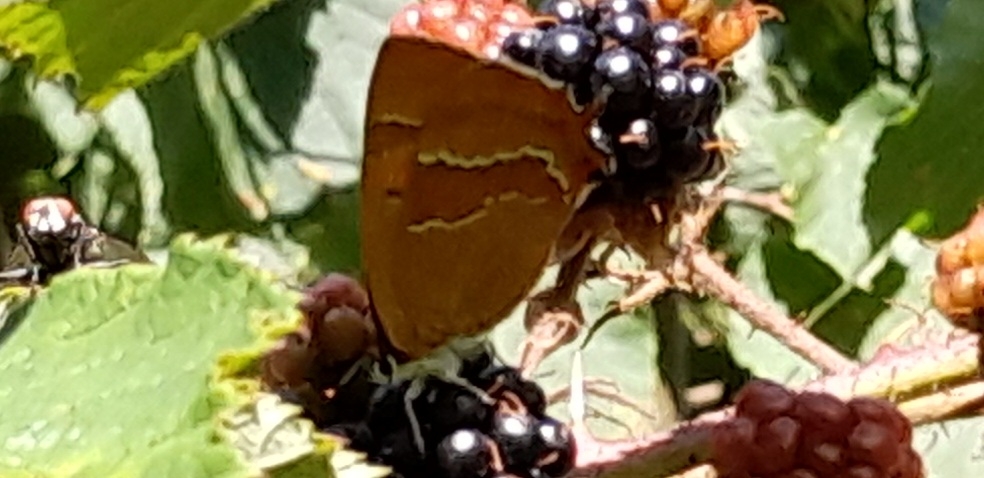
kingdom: Animalia
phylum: Arthropoda
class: Insecta
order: Lepidoptera
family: Lycaenidae
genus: Thecla
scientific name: Thecla betulae
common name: Guldhale
